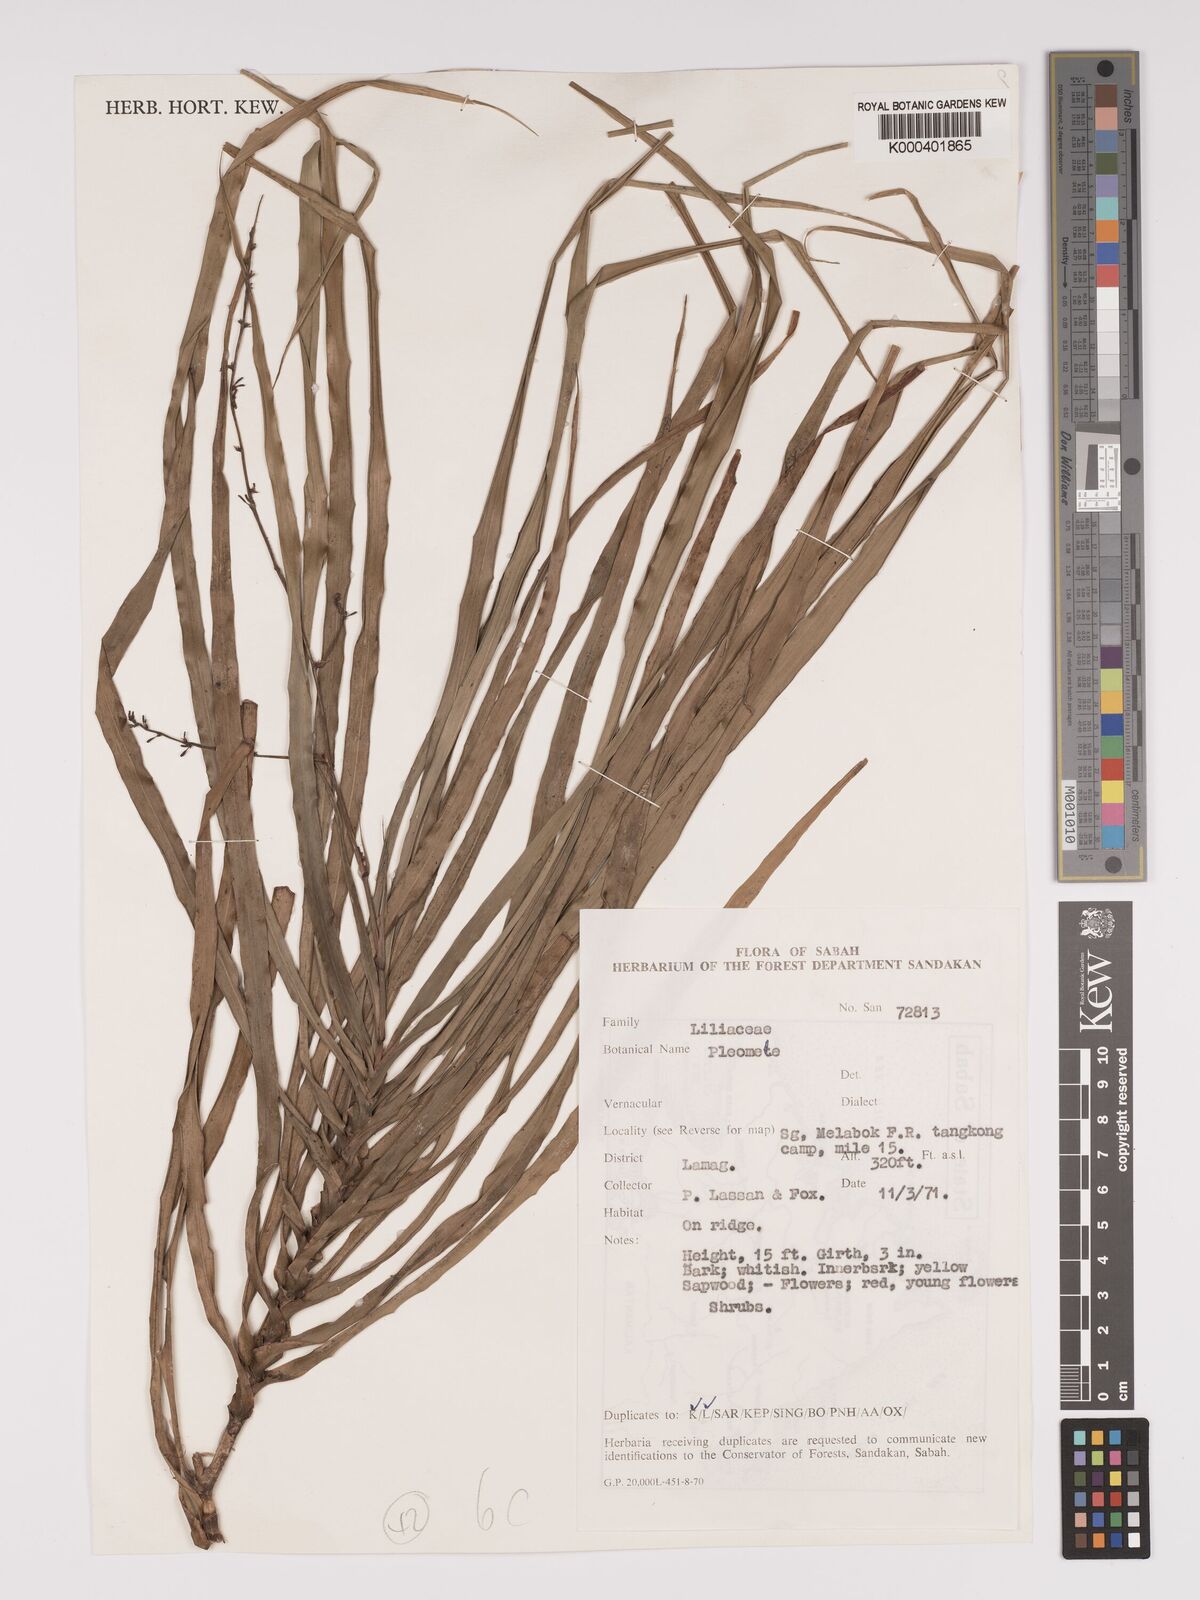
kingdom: Plantae
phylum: Tracheophyta
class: Liliopsida
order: Asparagales
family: Asparagaceae
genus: Dracaena
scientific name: Dracaena
